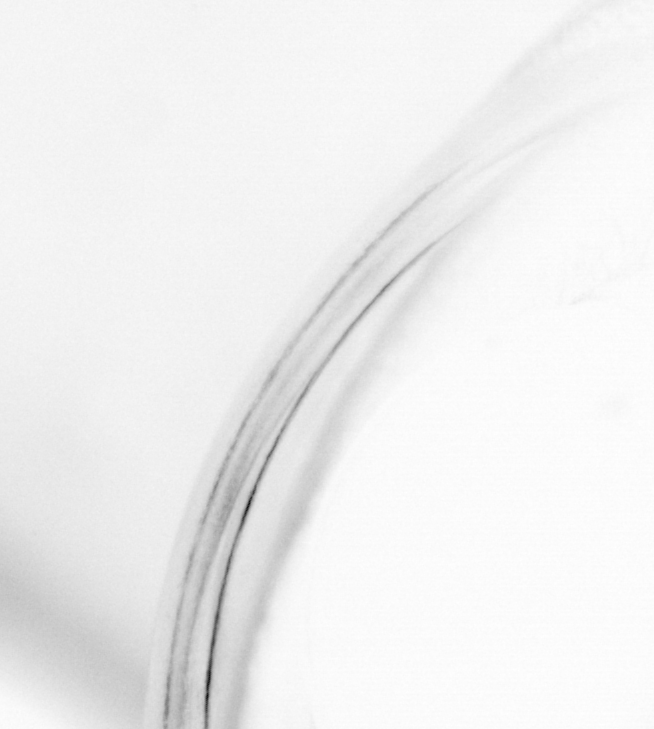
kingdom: Animalia
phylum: Chordata
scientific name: Chordata
